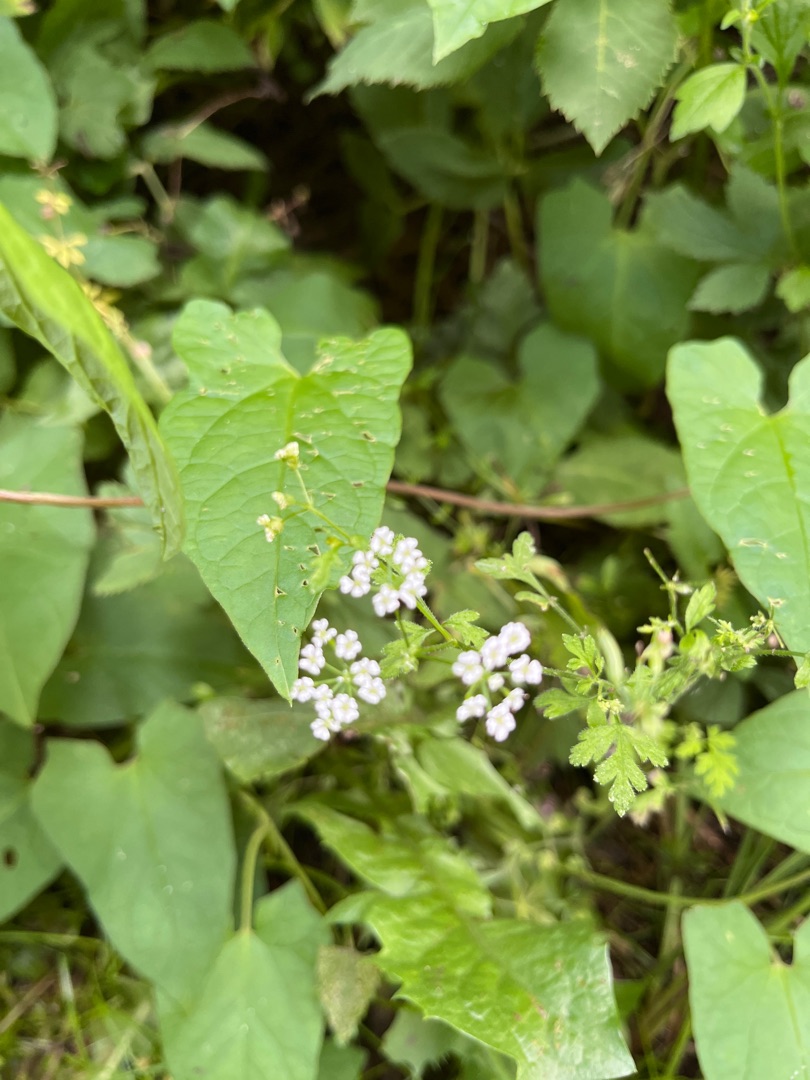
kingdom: Plantae
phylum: Tracheophyta
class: Magnoliopsida
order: Apiales
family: Apiaceae
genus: Chaerophyllum
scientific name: Chaerophyllum temulum
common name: Almindelig hulsvøb
